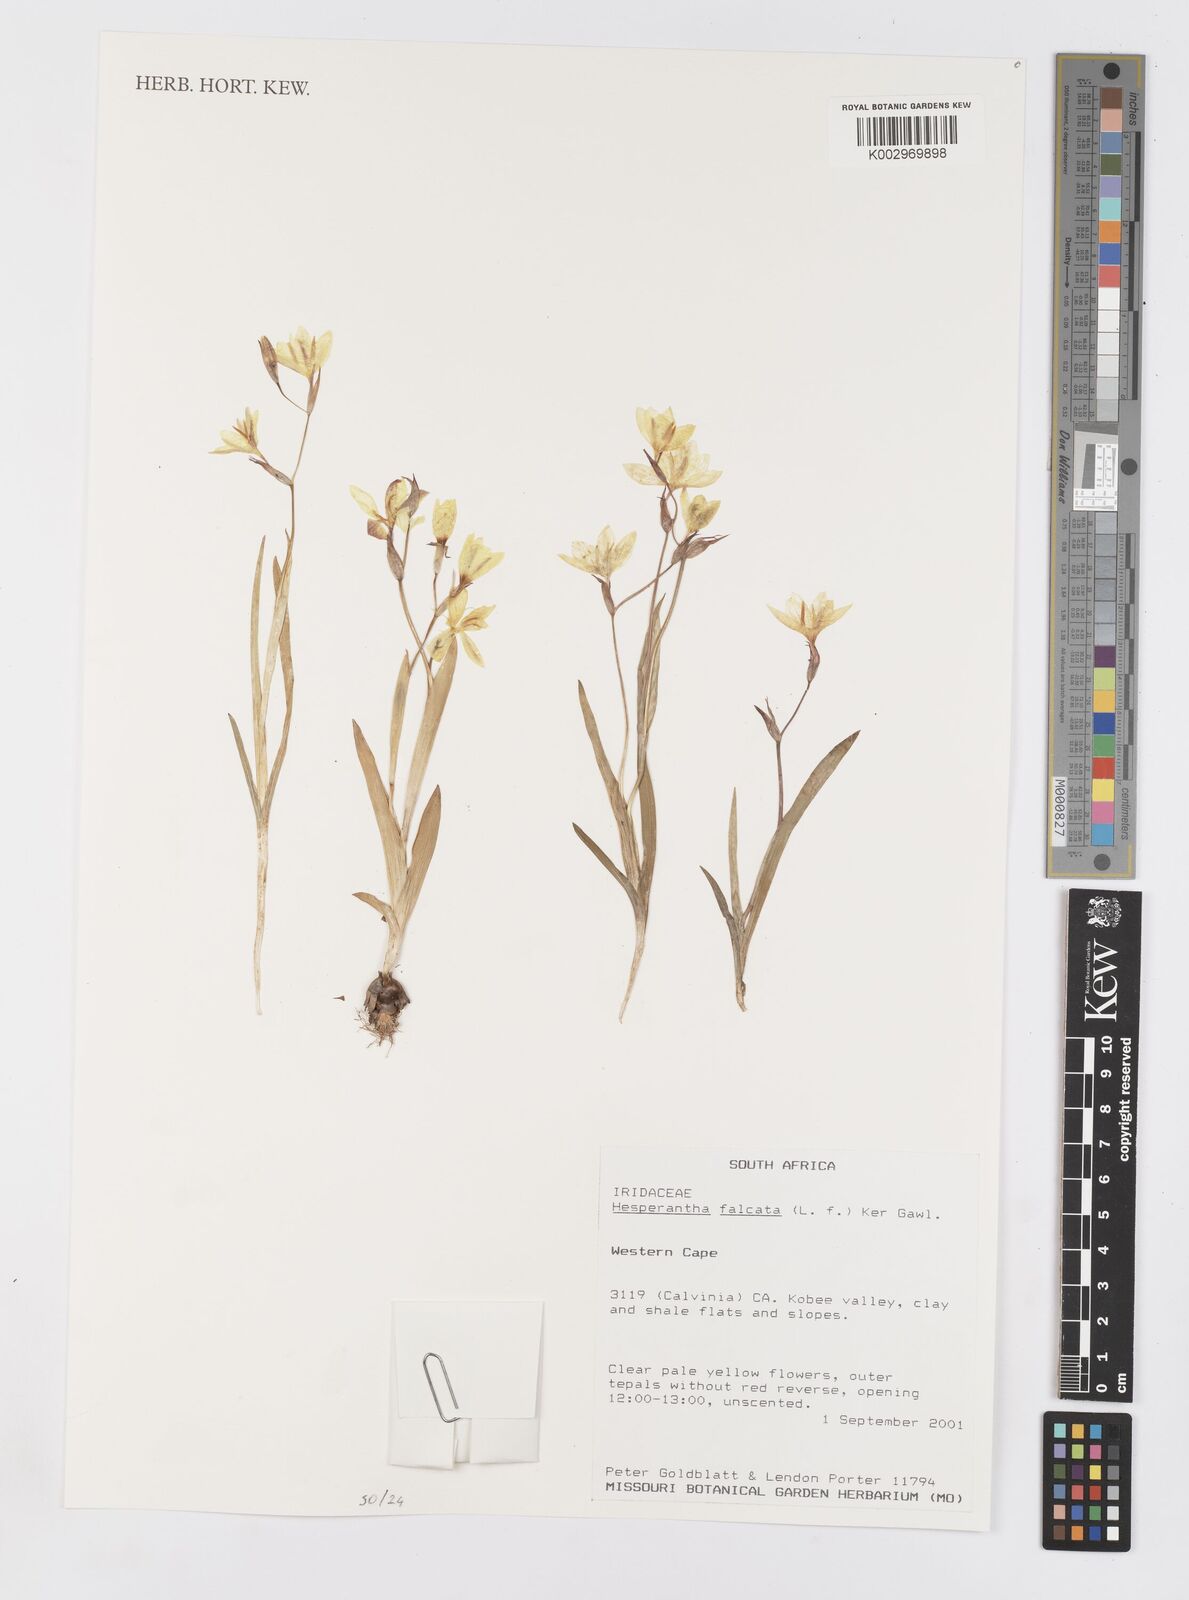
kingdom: Plantae
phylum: Tracheophyta
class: Liliopsida
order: Asparagales
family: Iridaceae
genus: Hesperantha
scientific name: Hesperantha falcata
